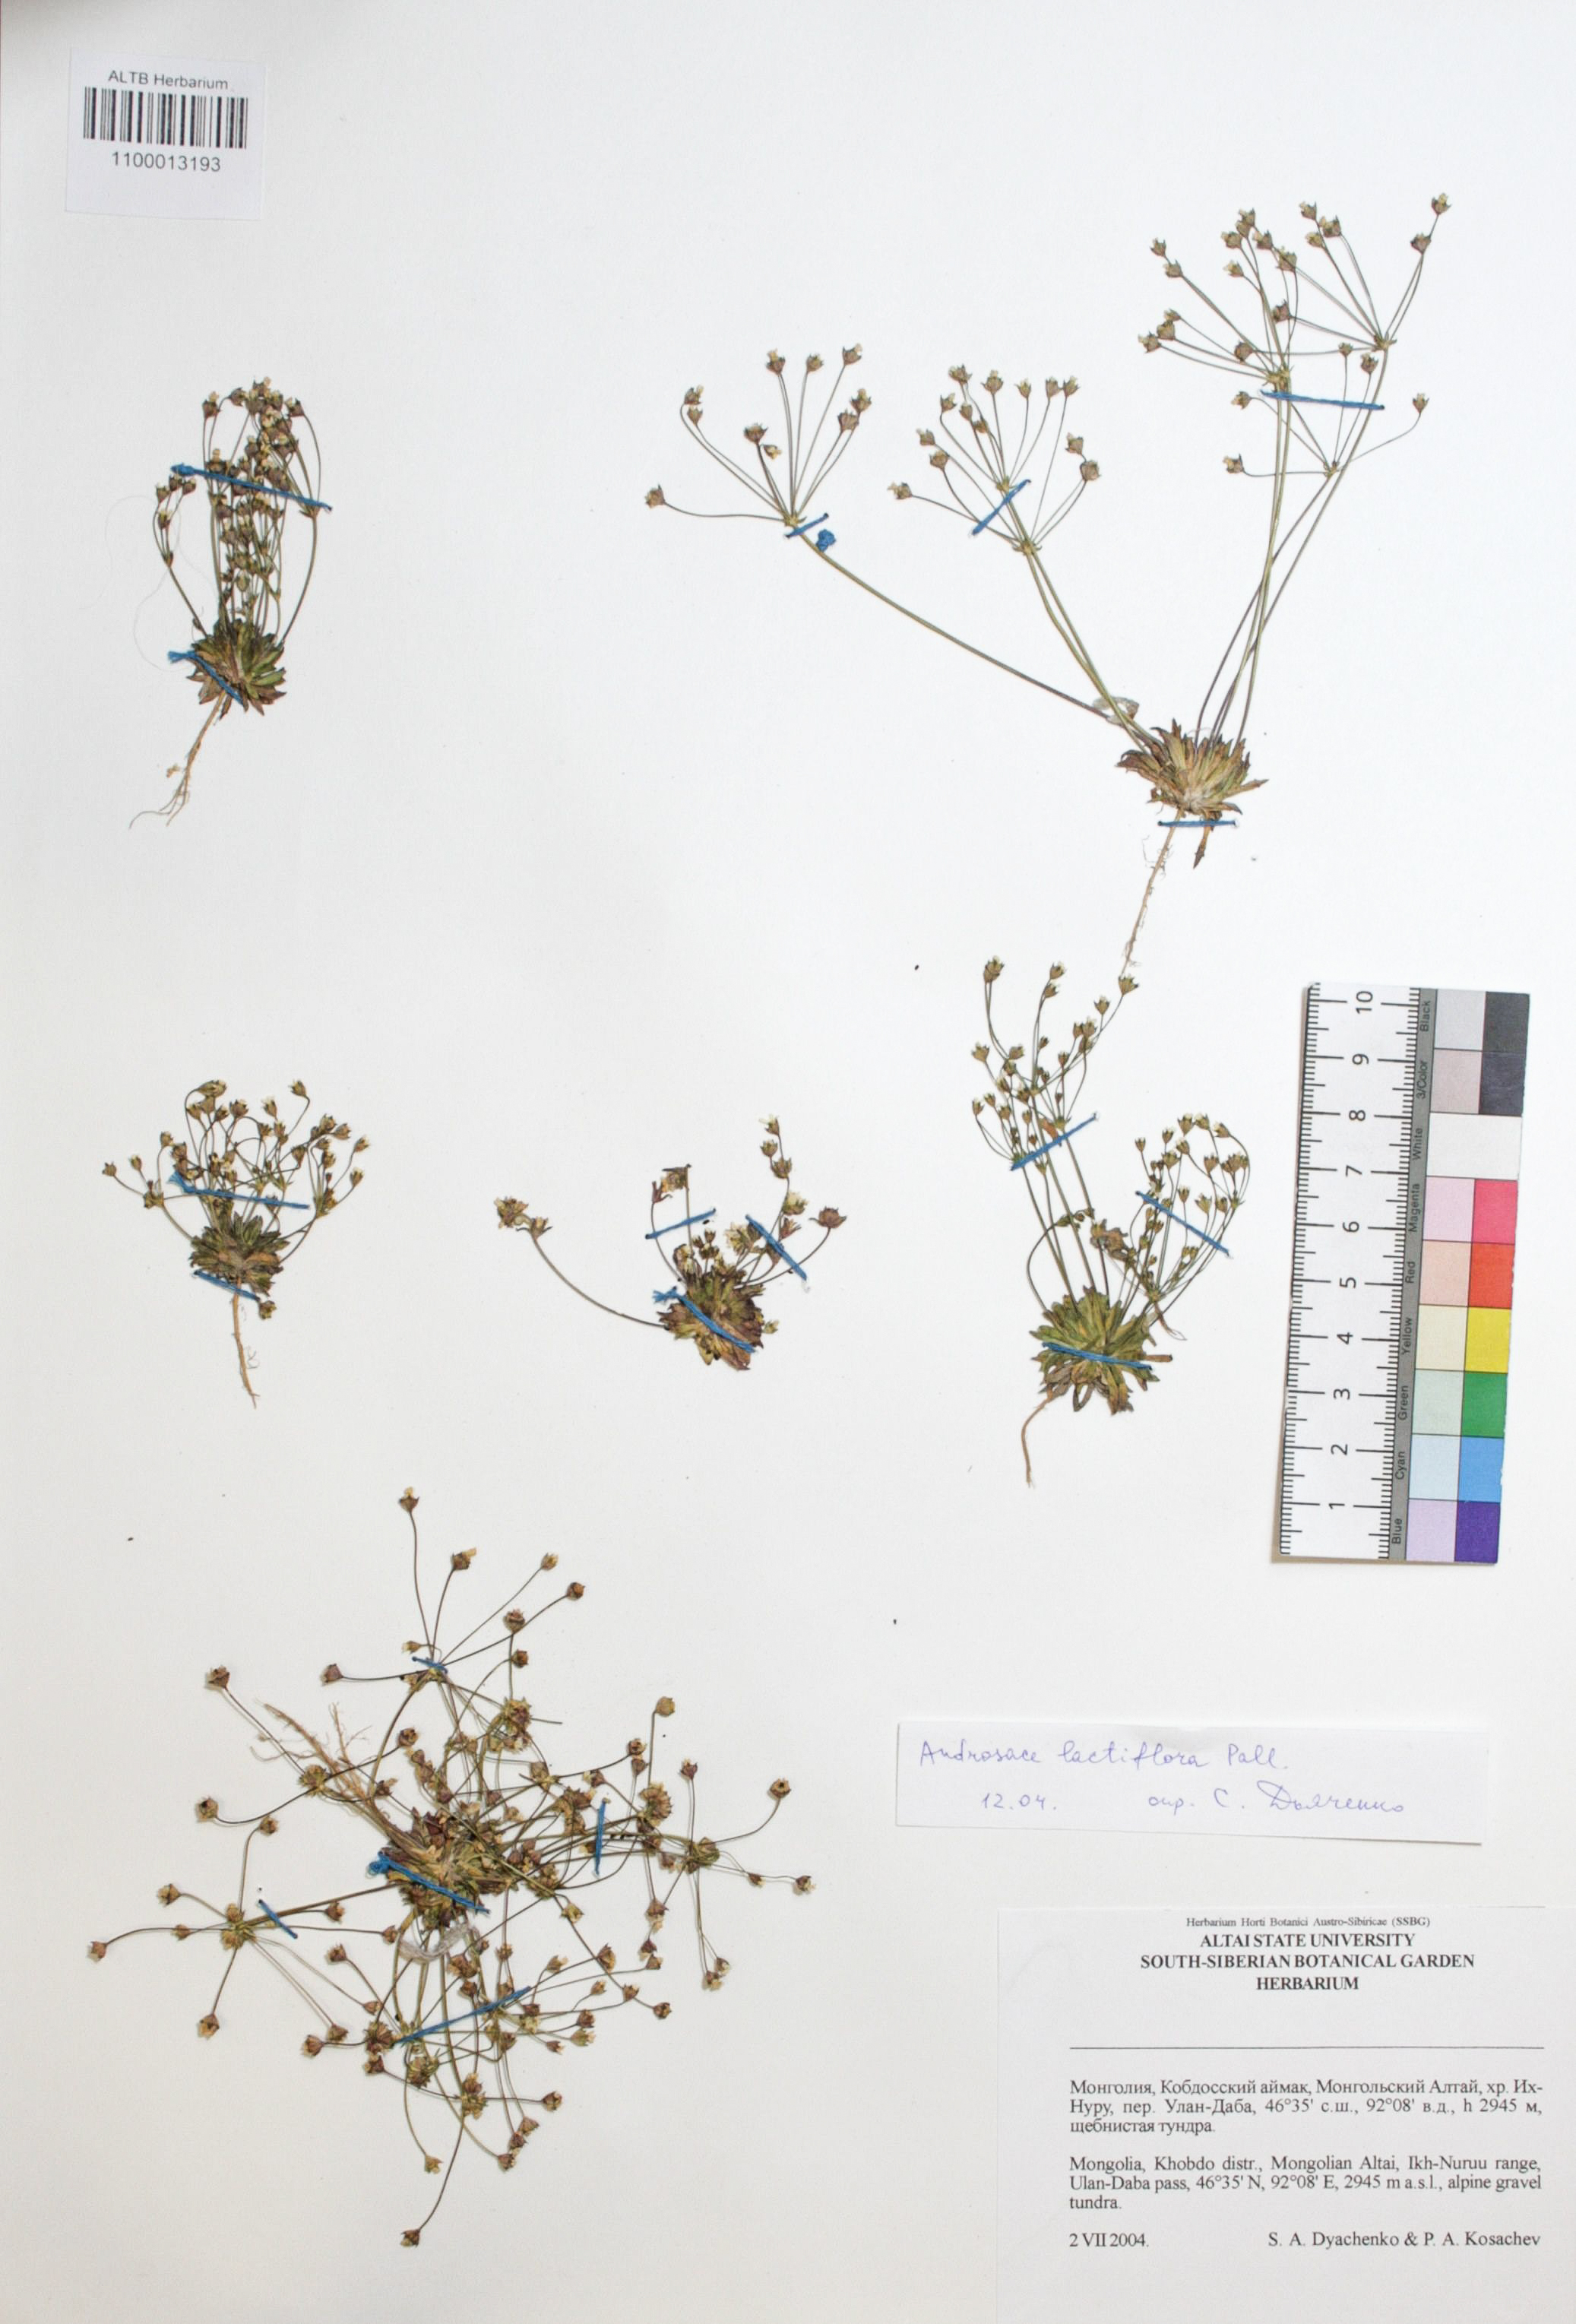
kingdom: Plantae
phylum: Tracheophyta
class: Magnoliopsida
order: Ericales
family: Primulaceae
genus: Androsace
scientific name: Androsace lactiflora
